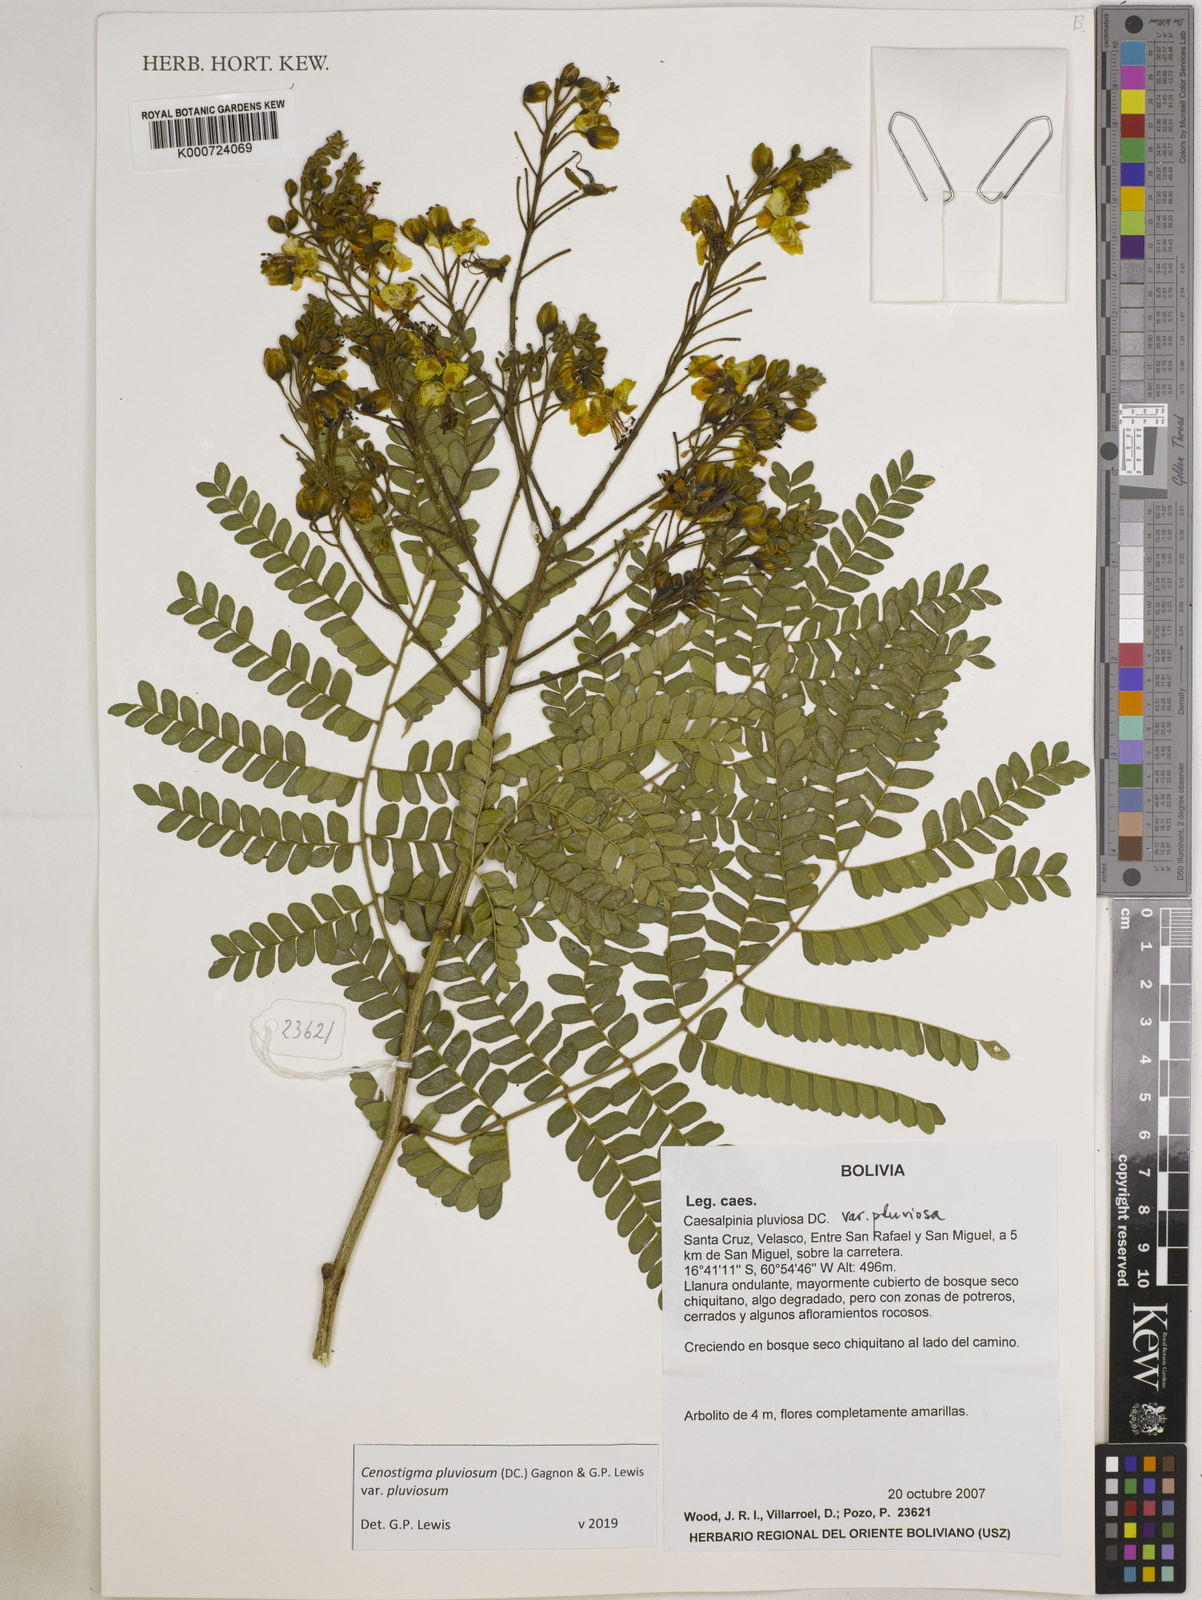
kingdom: Plantae
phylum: Tracheophyta
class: Magnoliopsida
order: Fabales
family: Fabaceae
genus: Cenostigma
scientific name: Cenostigma pluviosum
